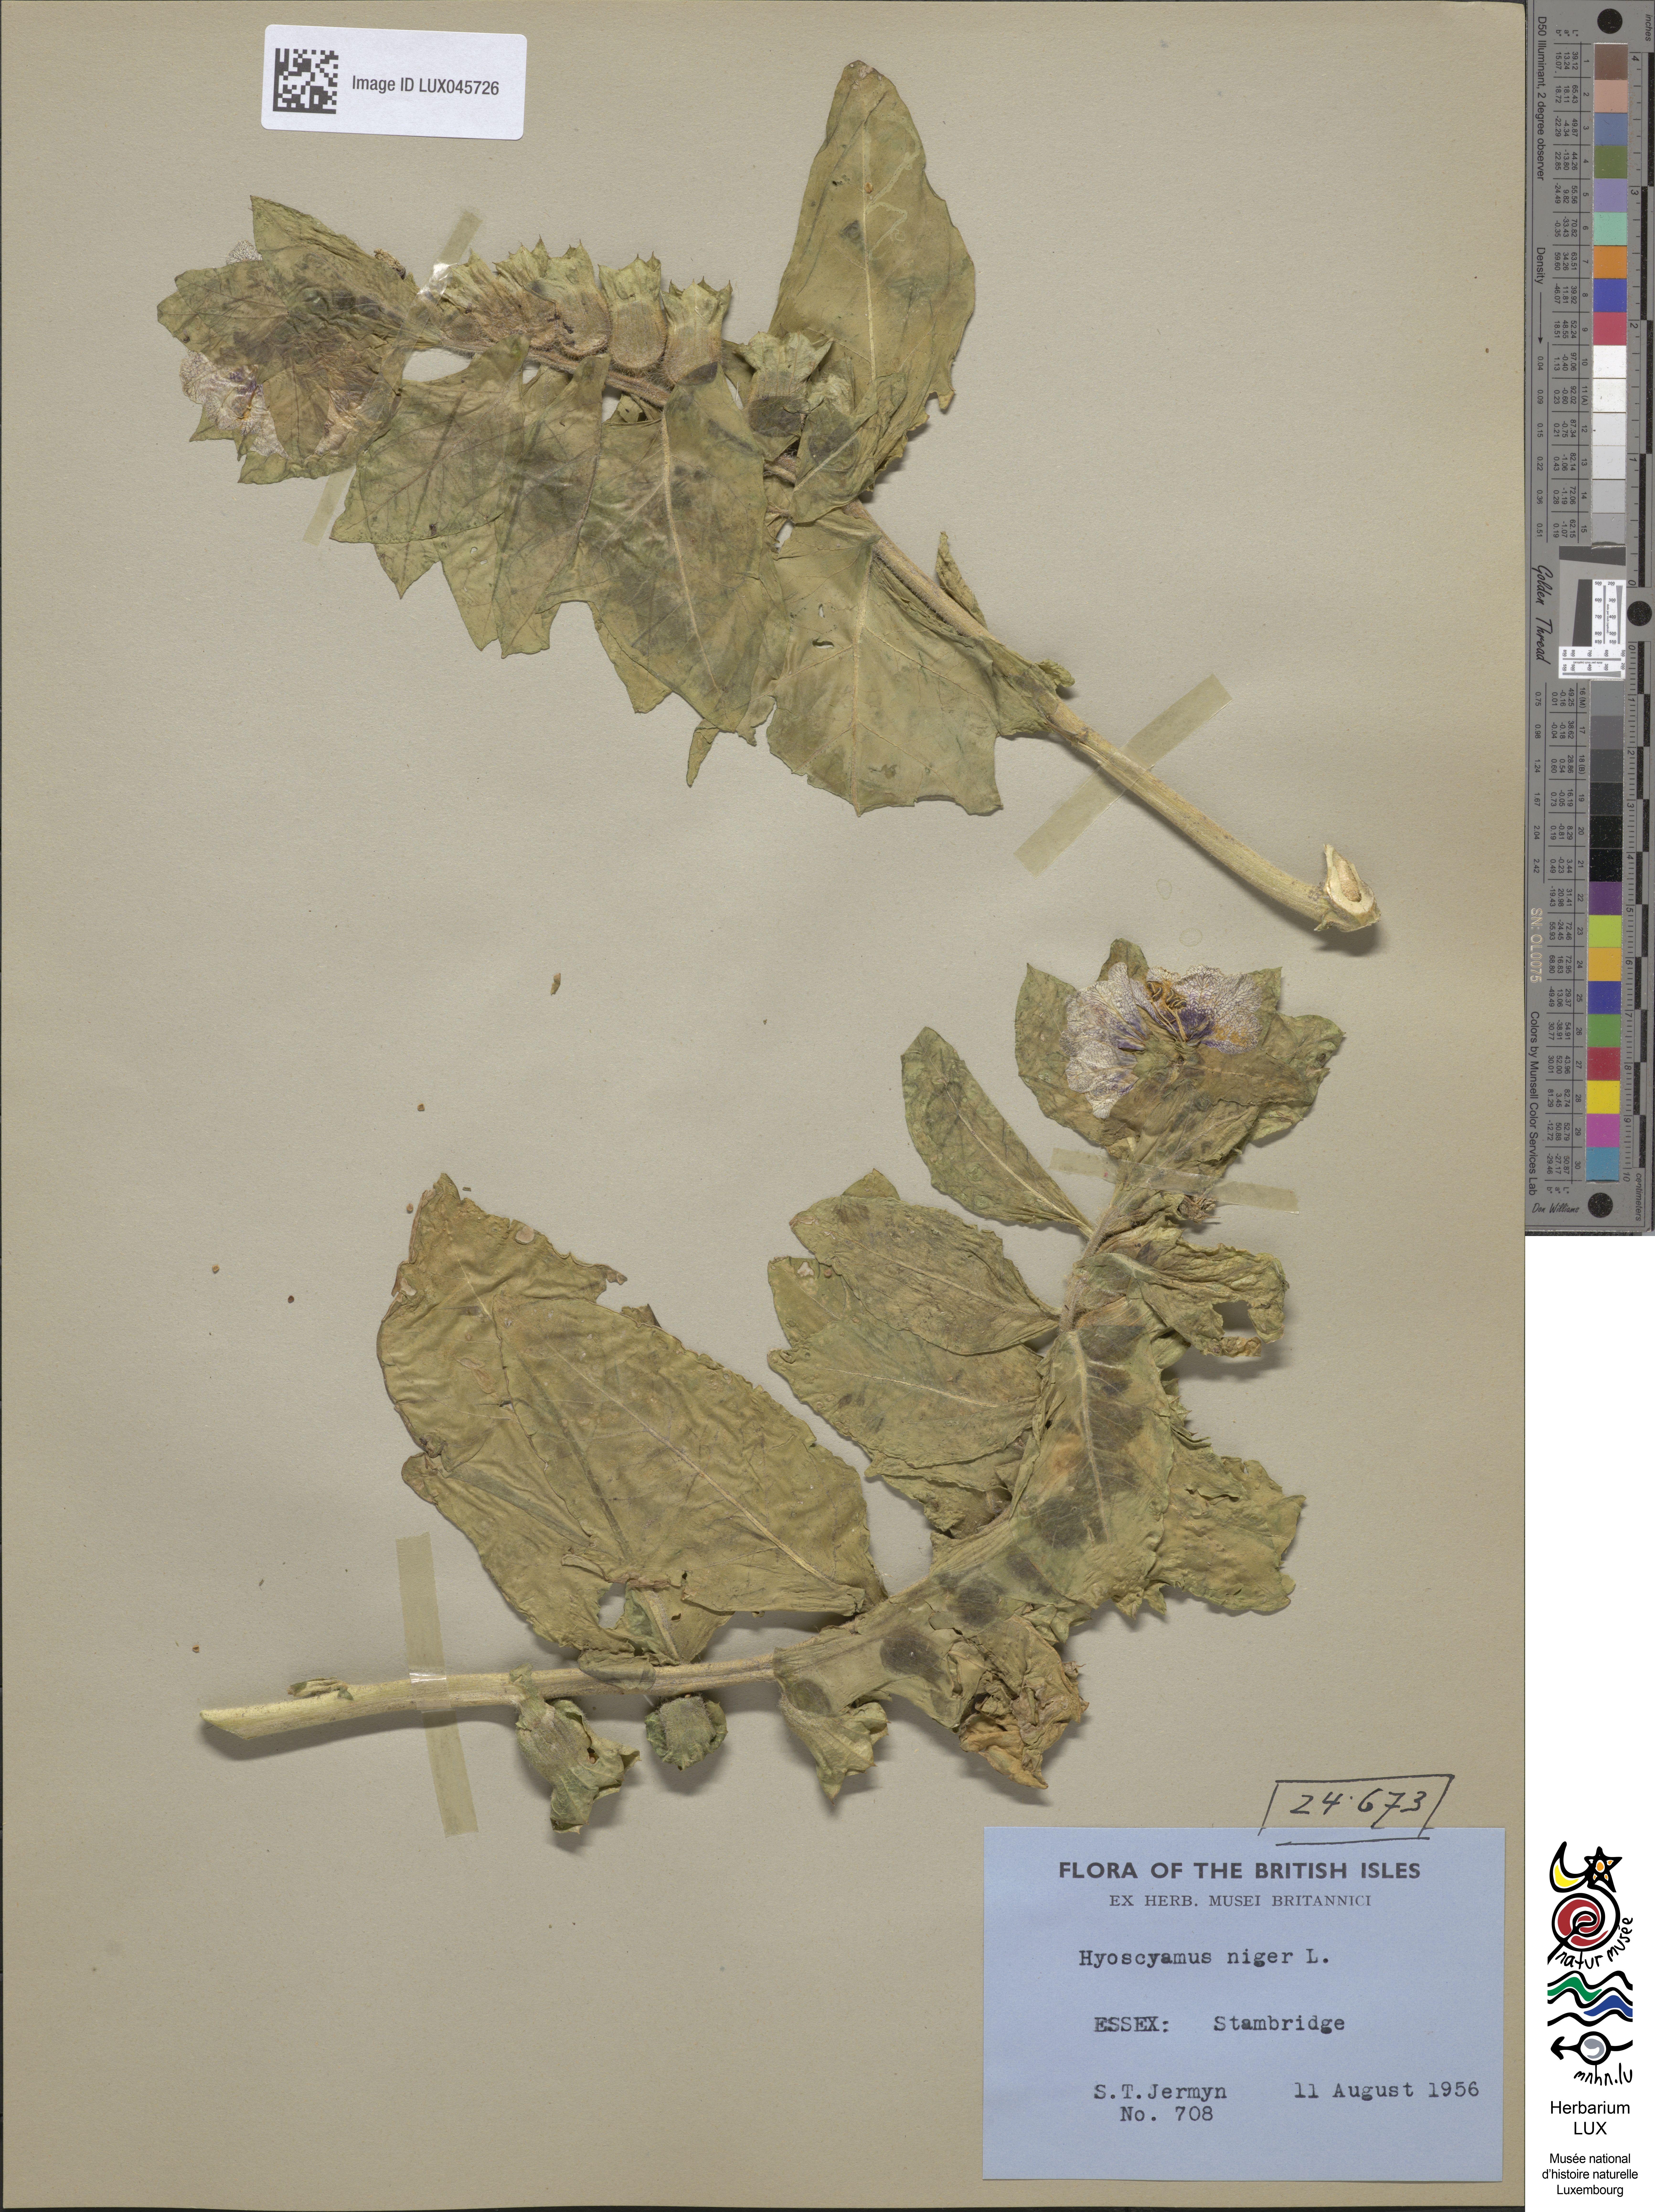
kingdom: Plantae
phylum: Tracheophyta
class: Magnoliopsida
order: Solanales
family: Solanaceae
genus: Hyoscyamus
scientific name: Hyoscyamus niger
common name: Henbane
